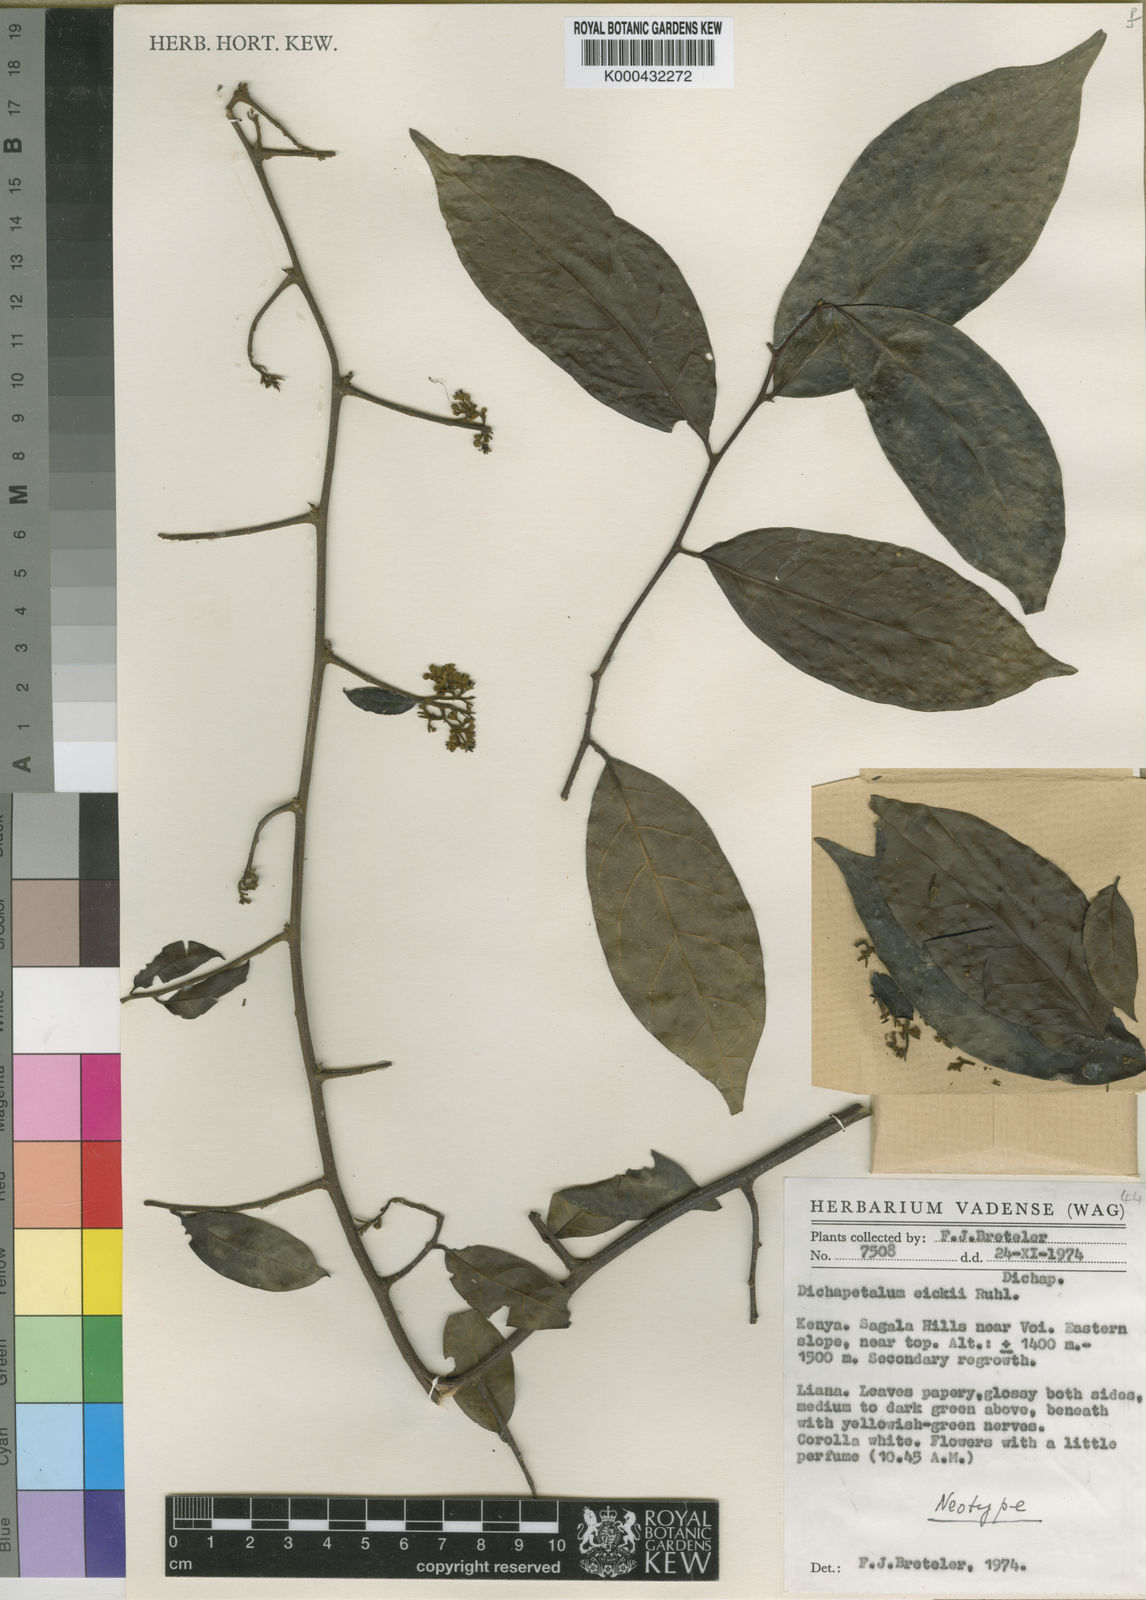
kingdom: Plantae
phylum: Tracheophyta
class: Magnoliopsida
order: Malpighiales
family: Dichapetalaceae
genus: Dichapetalum
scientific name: Dichapetalum eickii
